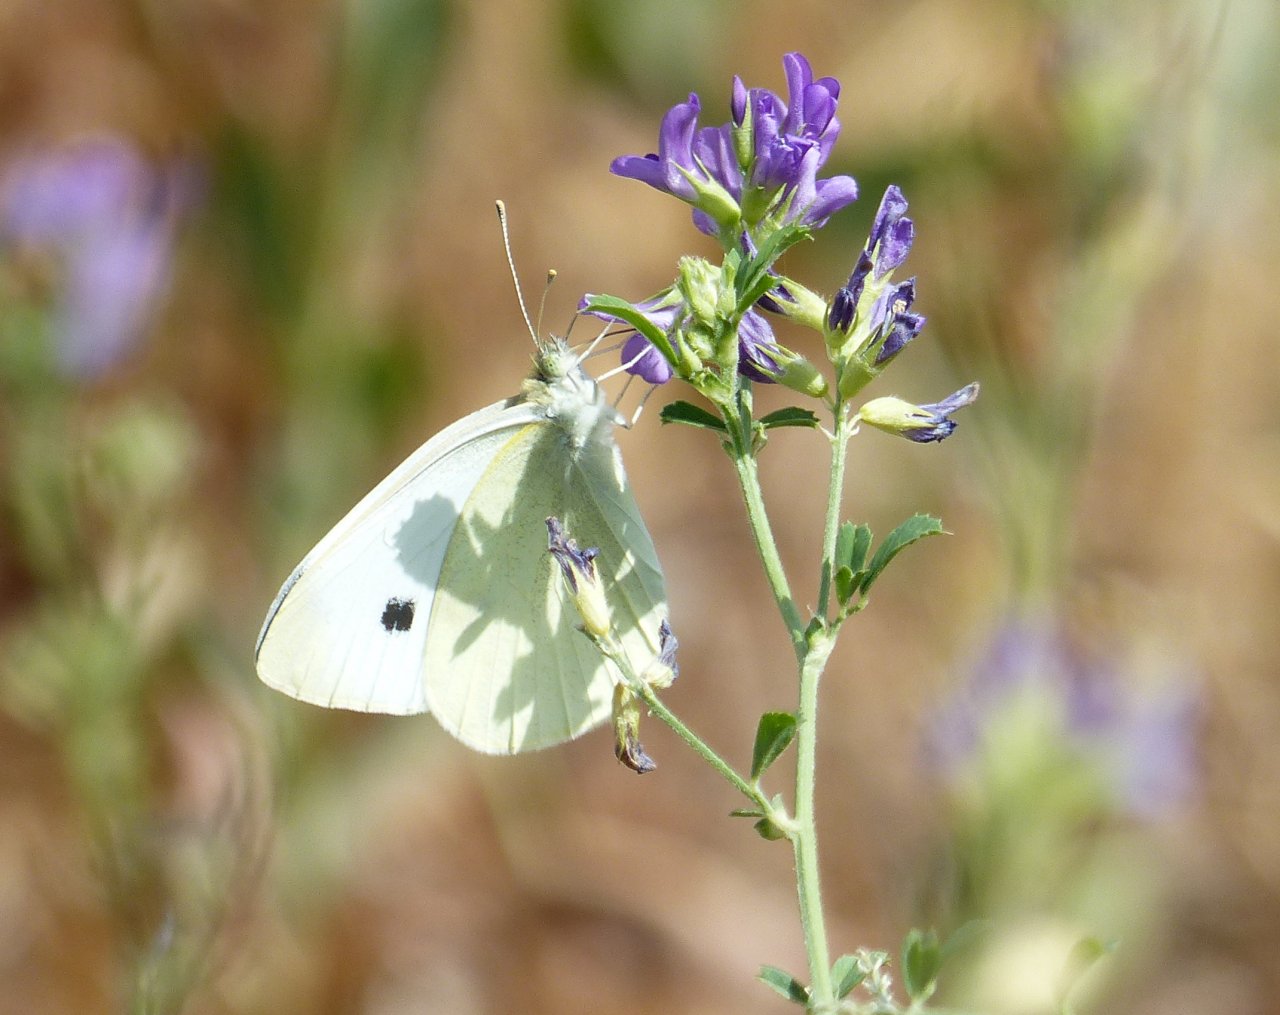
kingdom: Animalia
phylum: Arthropoda
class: Insecta
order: Lepidoptera
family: Pieridae
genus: Pieris
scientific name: Pieris rapae
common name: Cabbage White
